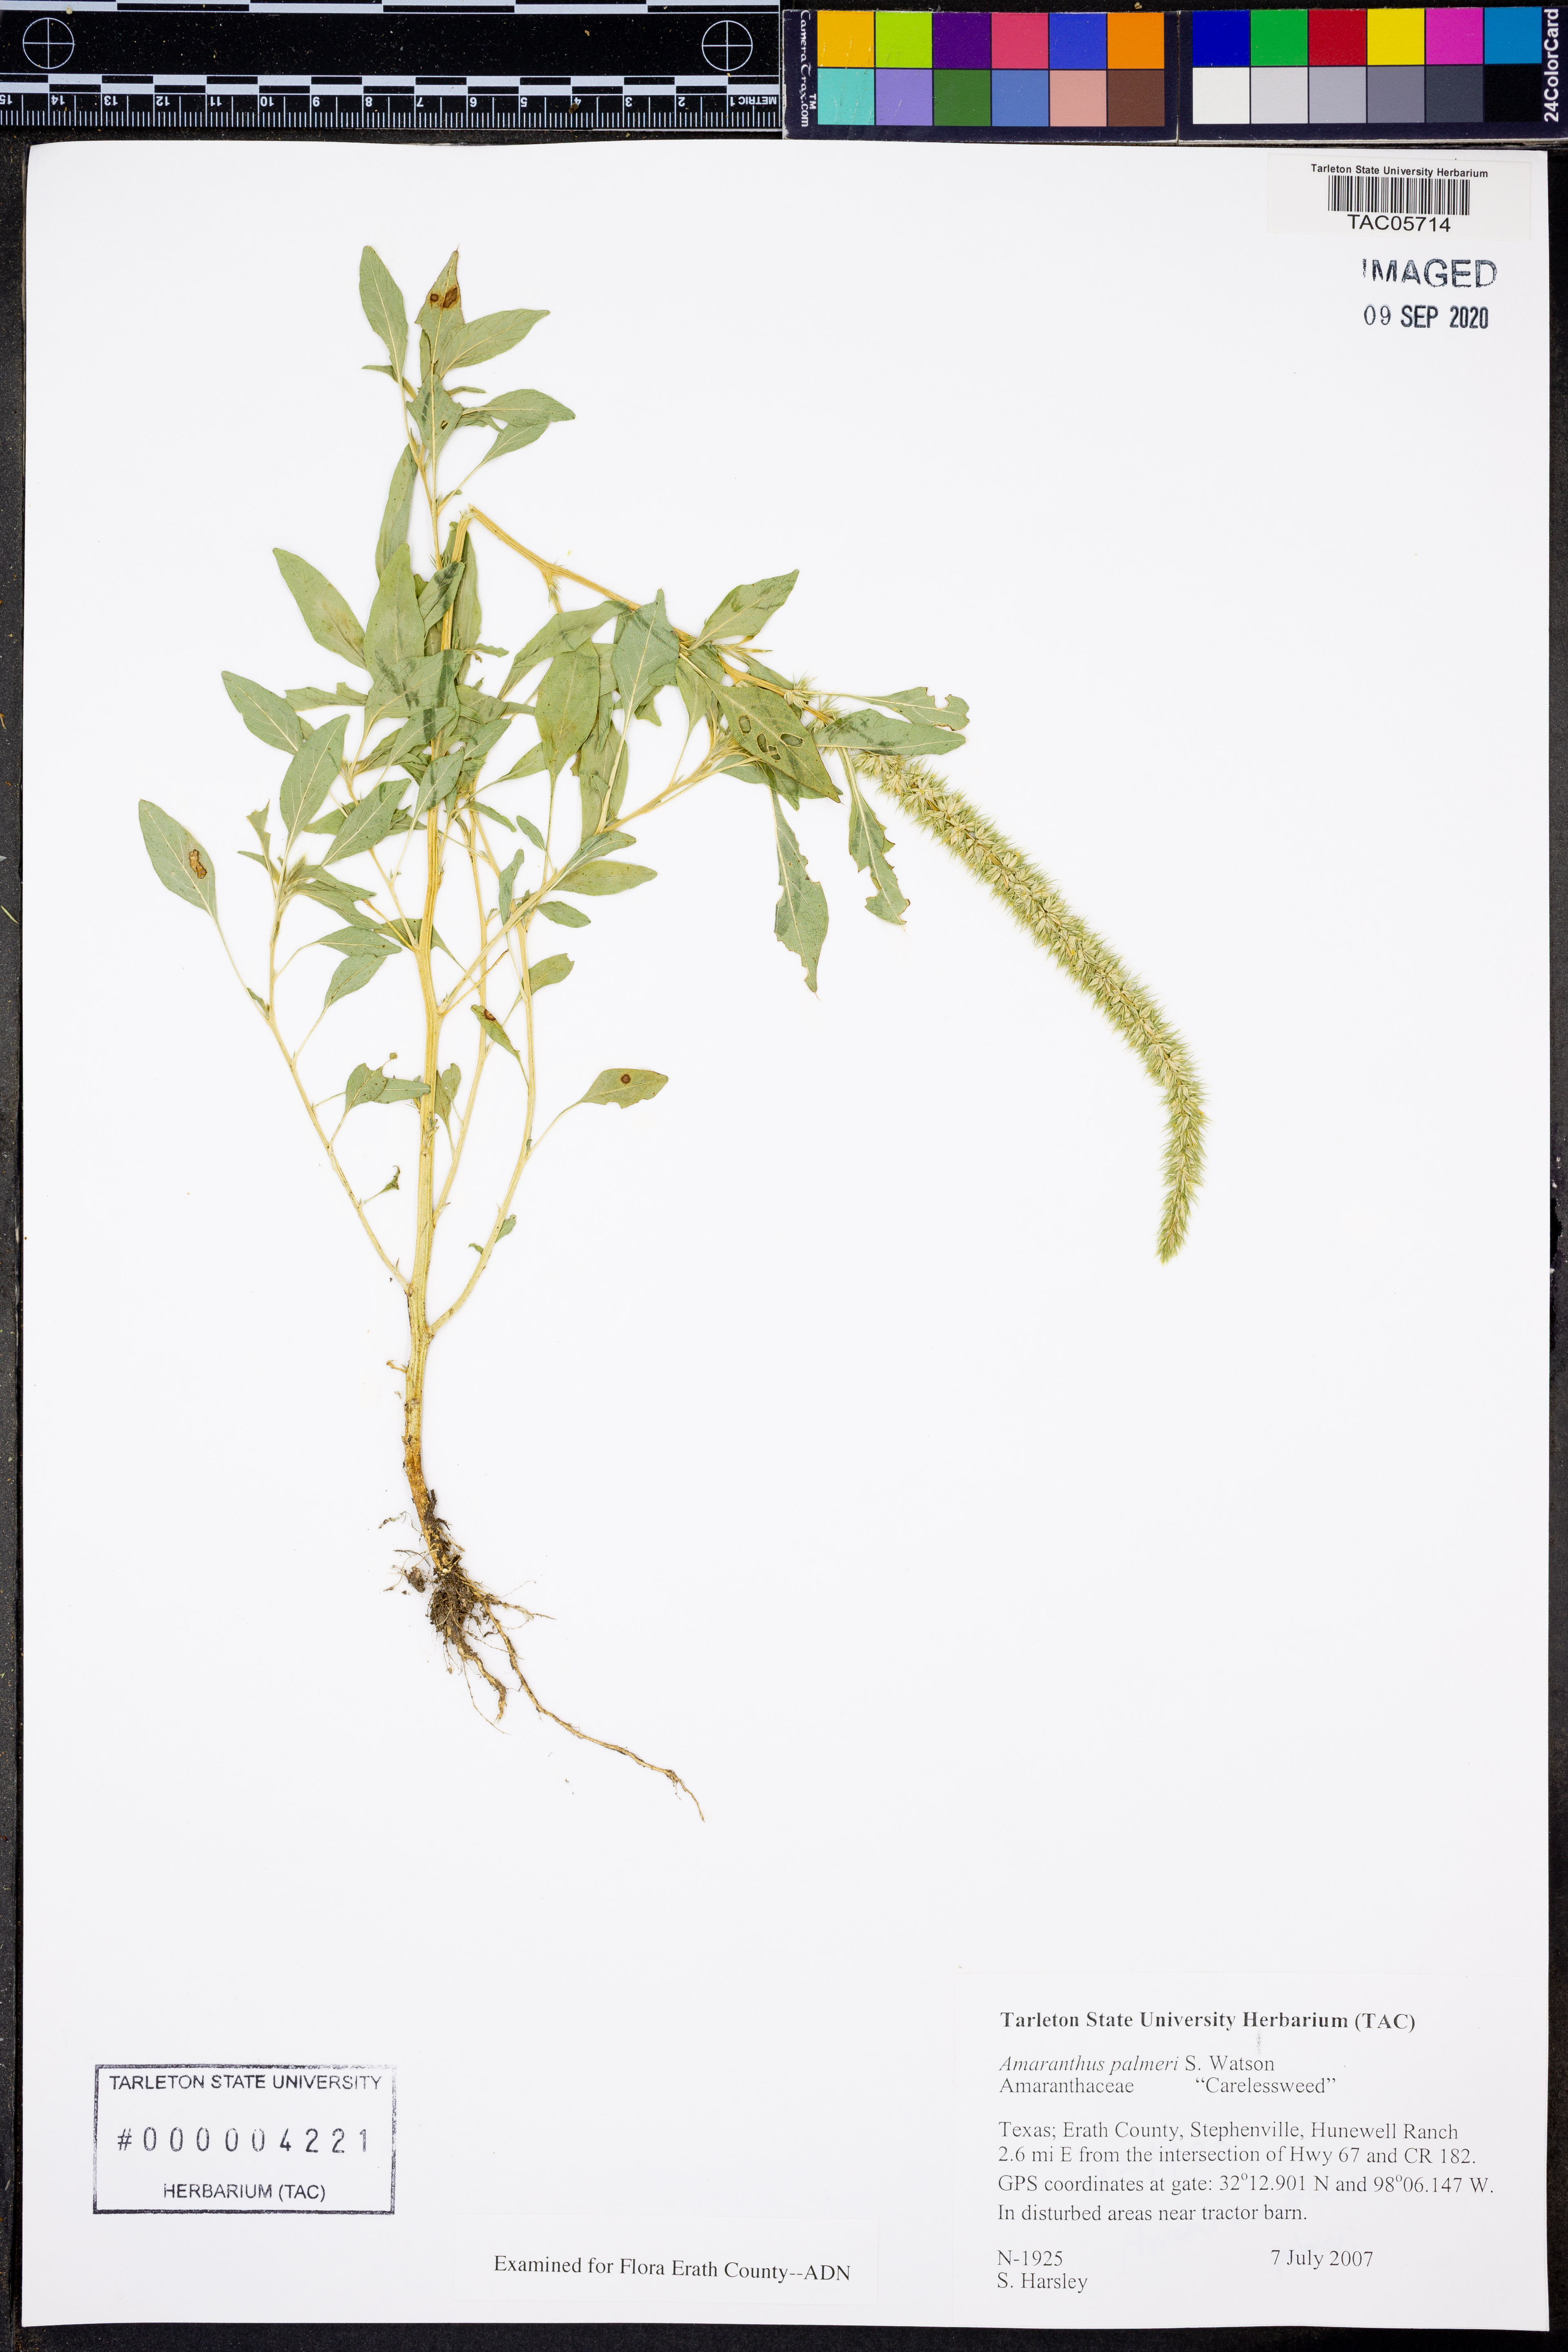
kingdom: Plantae
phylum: Tracheophyta
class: Magnoliopsida
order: Caryophyllales
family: Amaranthaceae
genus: Amaranthus
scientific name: Amaranthus palmeri
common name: Dioecious amaranth
